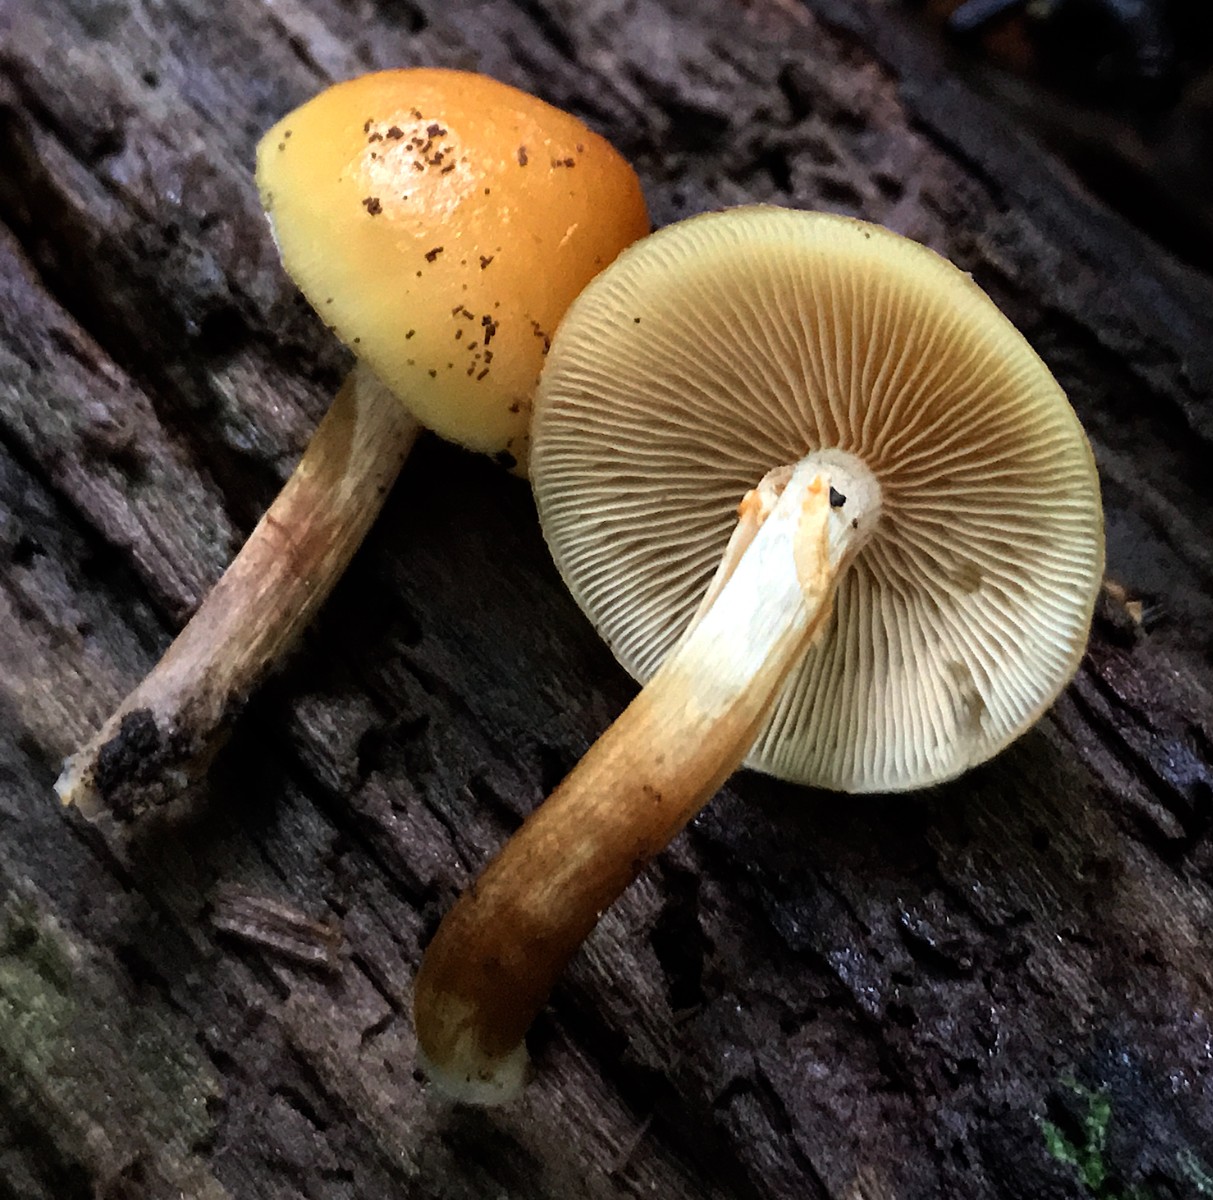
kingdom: Fungi
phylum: Basidiomycota
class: Agaricomycetes
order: Agaricales
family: Hymenogastraceae
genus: Galerina
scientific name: Galerina marginata
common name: randbæltet hjelmhat
